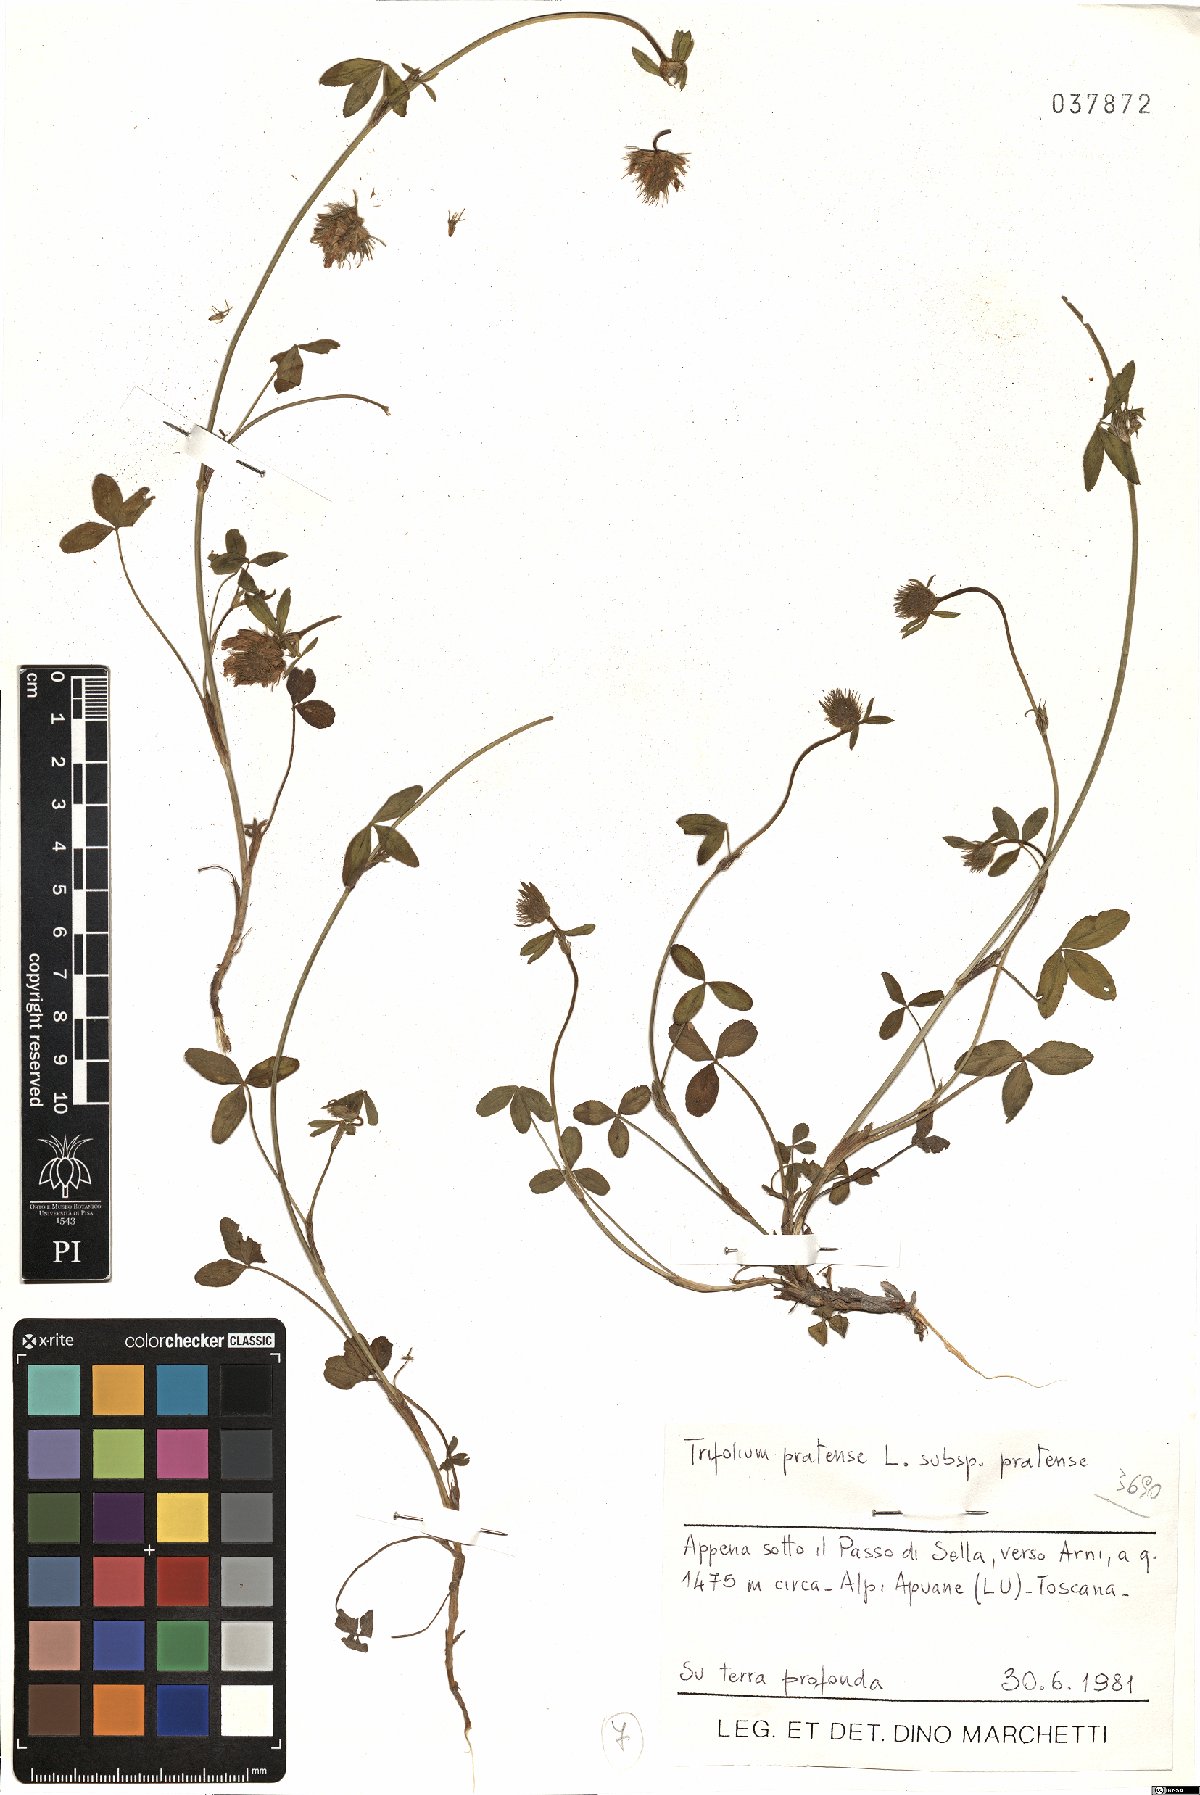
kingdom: Plantae
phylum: Tracheophyta
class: Magnoliopsida
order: Fabales
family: Fabaceae
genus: Trifolium
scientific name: Trifolium pratense
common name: Red clover
